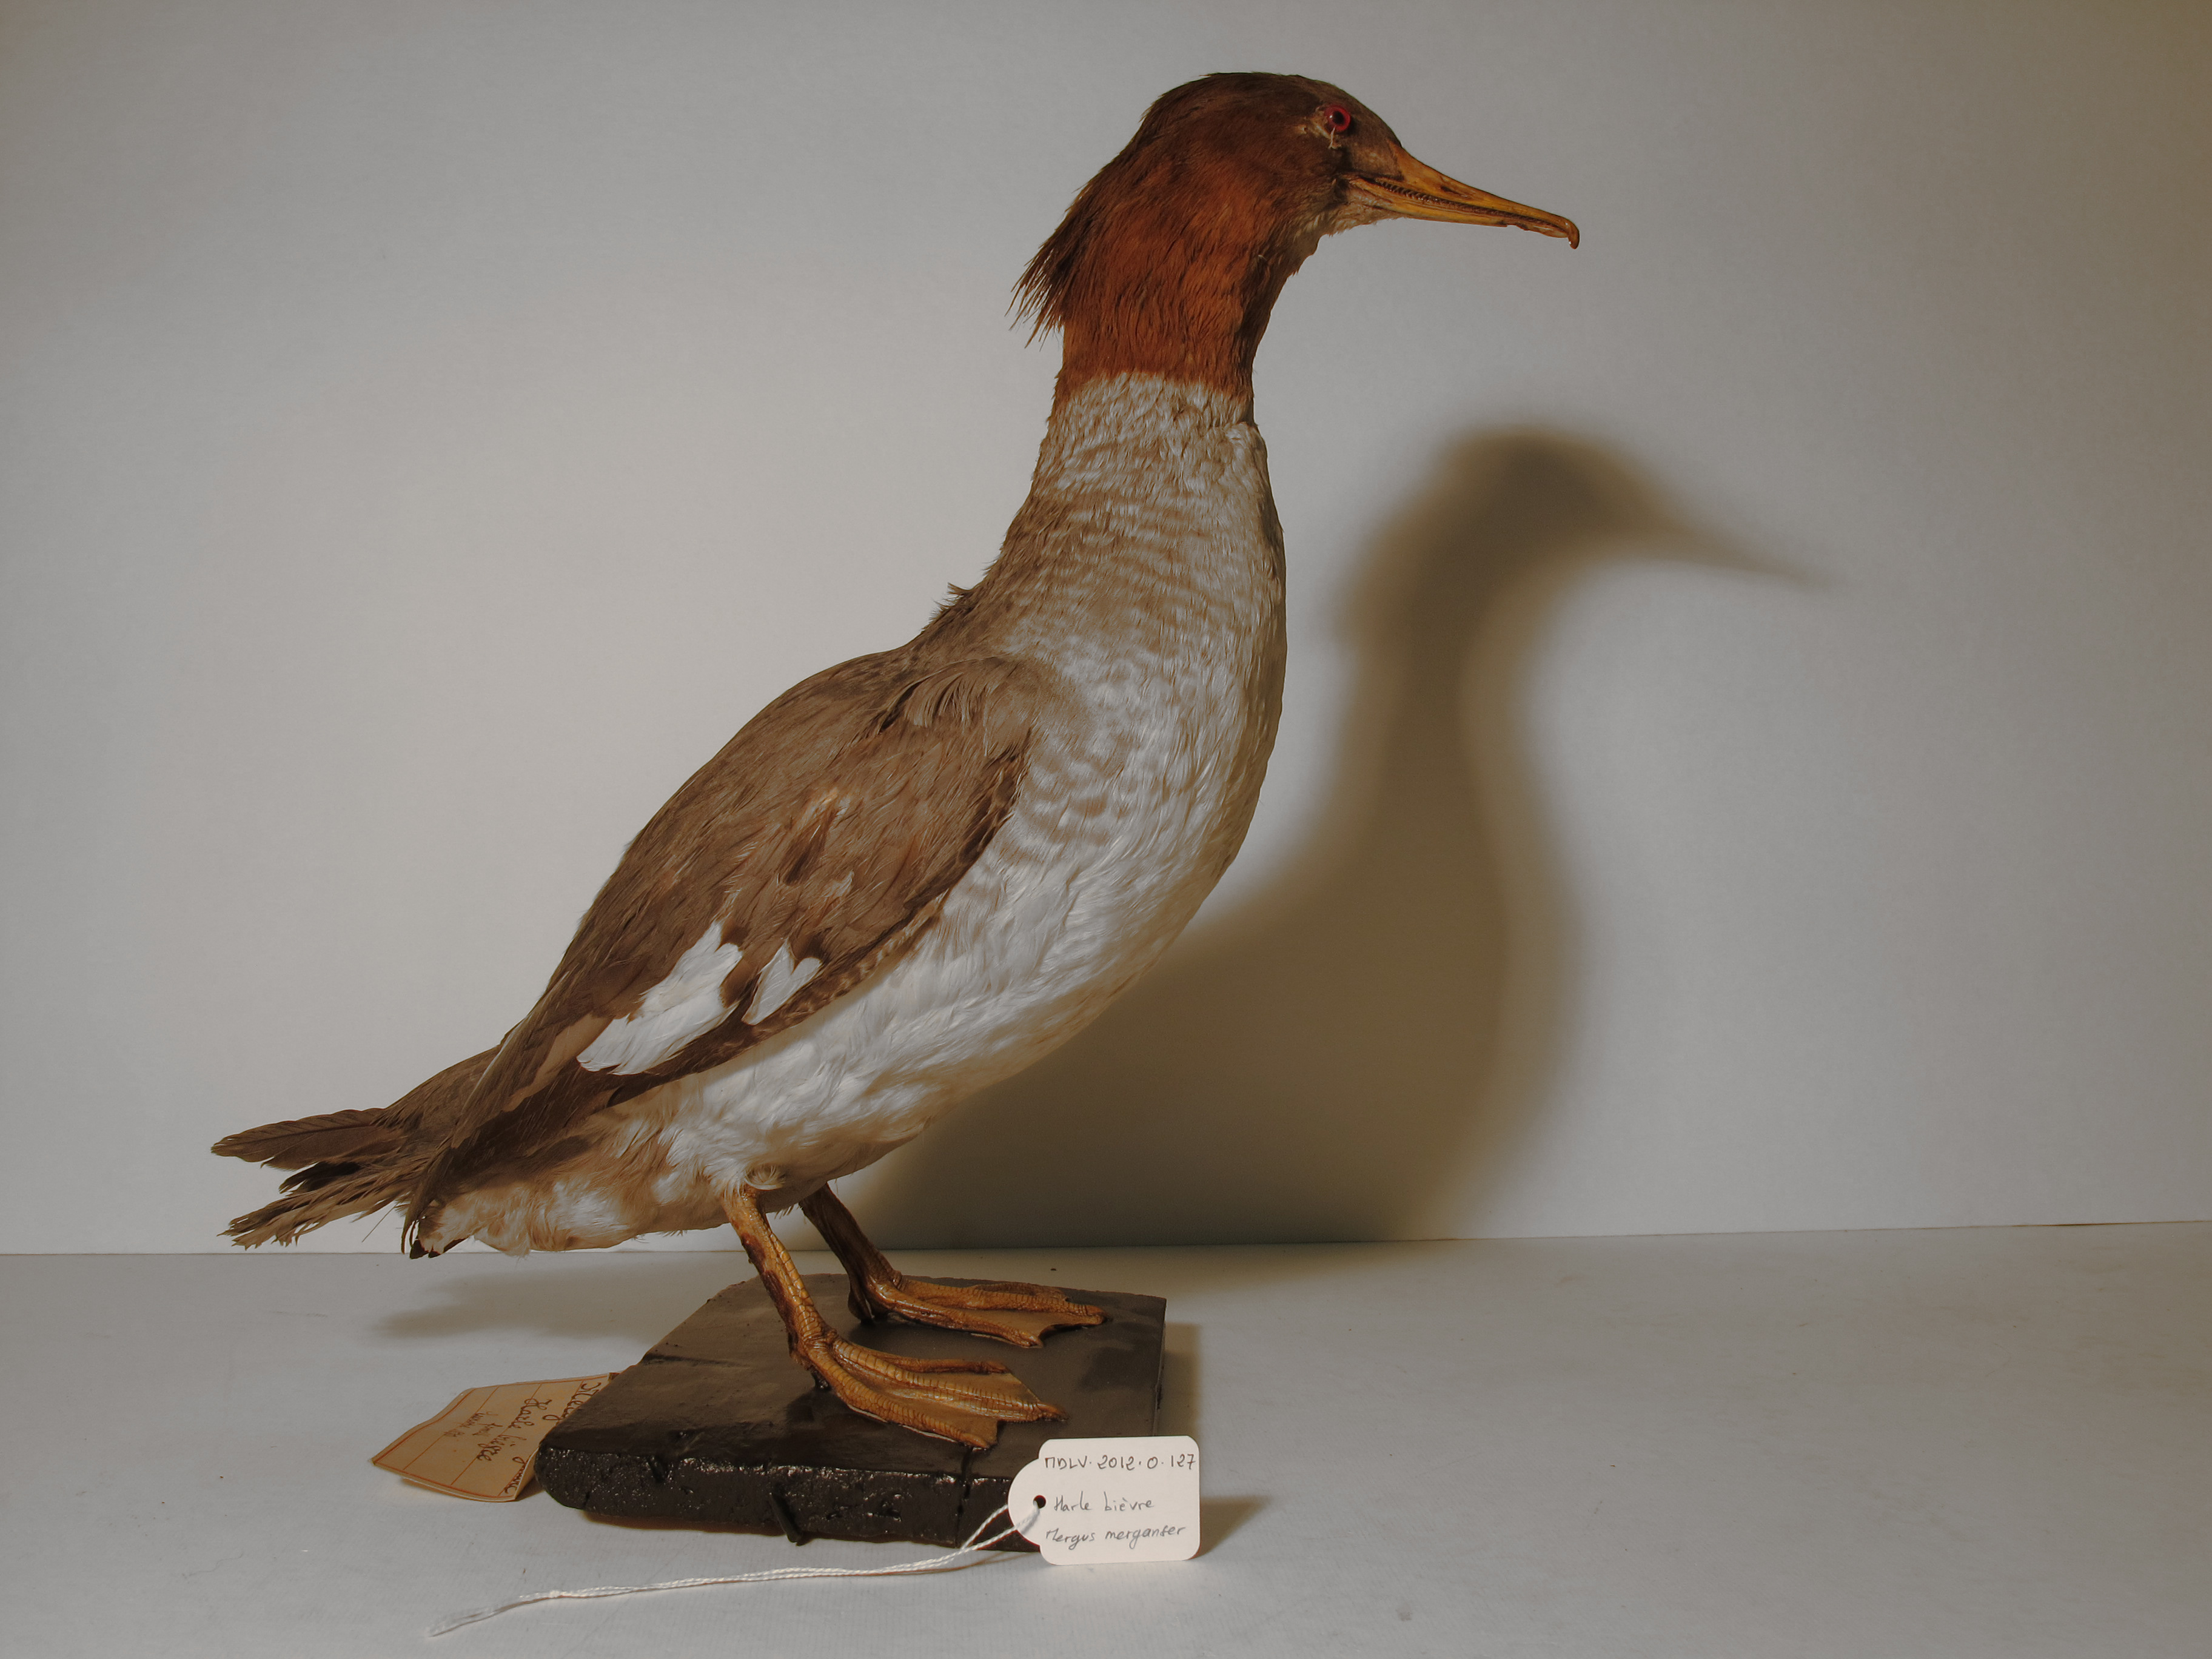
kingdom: Animalia
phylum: Chordata
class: Aves
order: Anseriformes
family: Anatidae
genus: Mergus
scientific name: Mergus merganser
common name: Goosander
